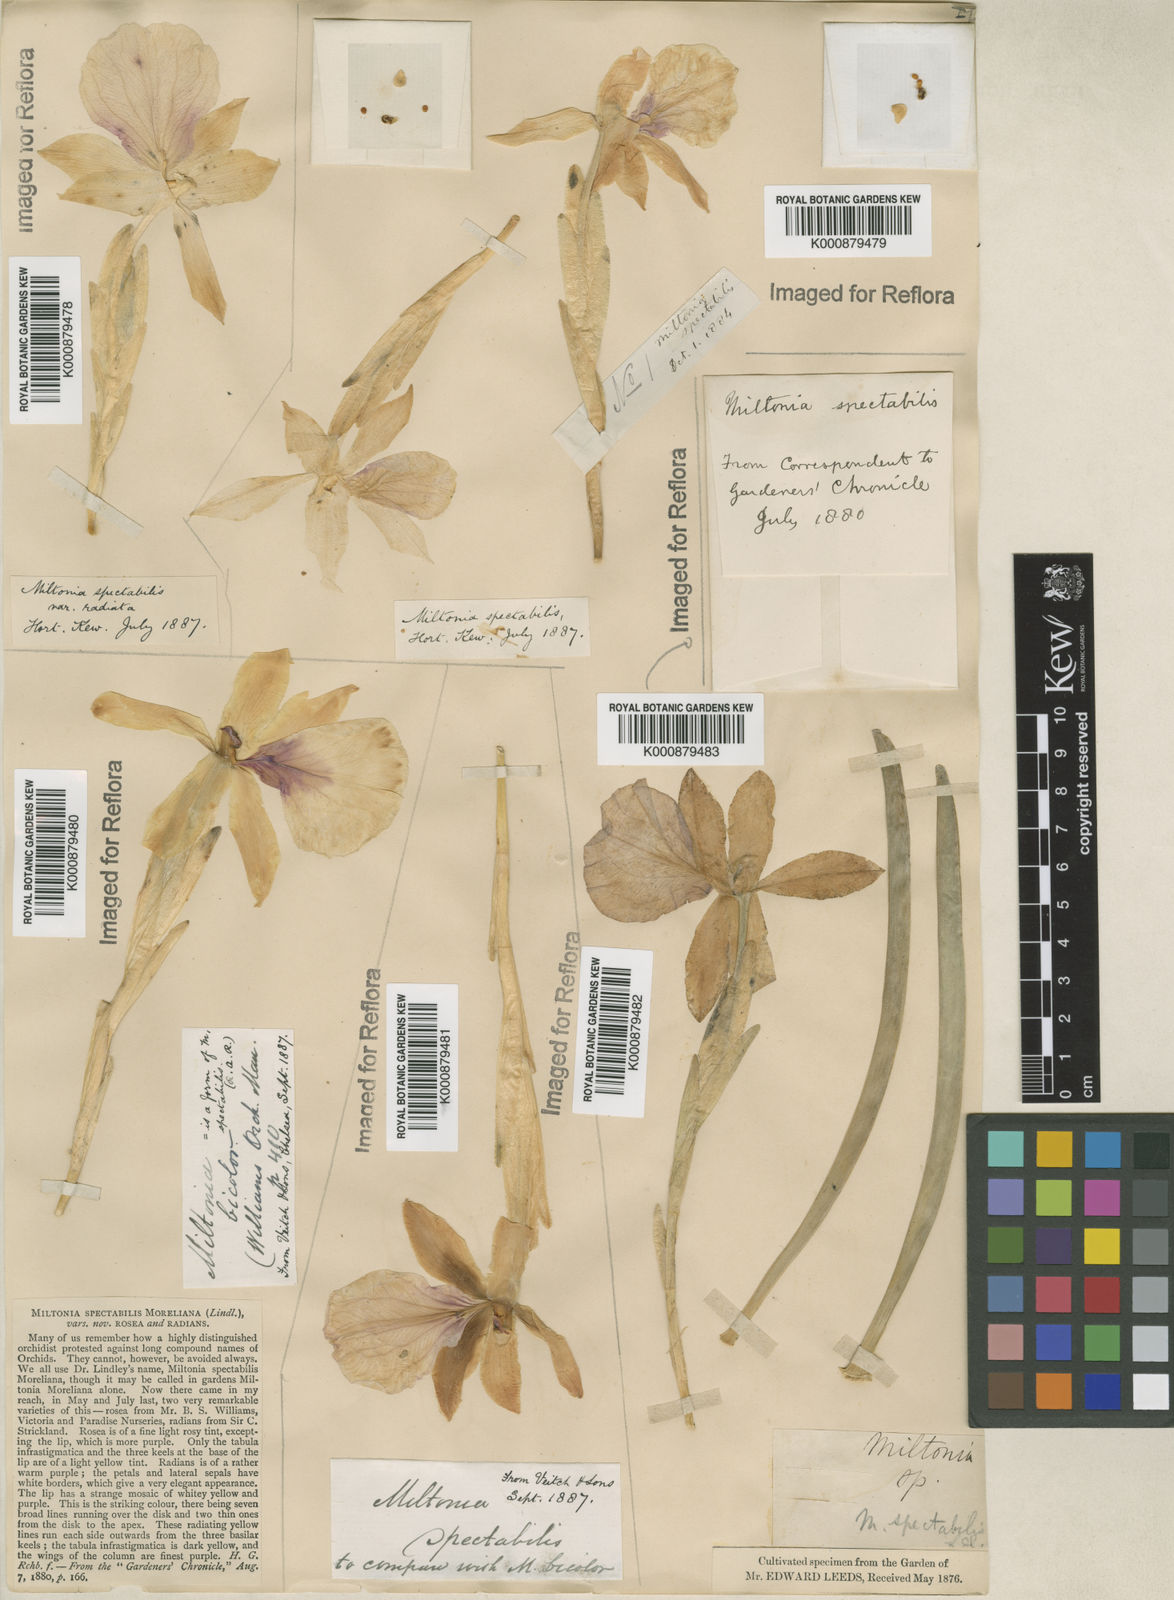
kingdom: Plantae
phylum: Tracheophyta
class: Liliopsida
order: Asparagales
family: Orchidaceae
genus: Miltonia
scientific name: Miltonia
